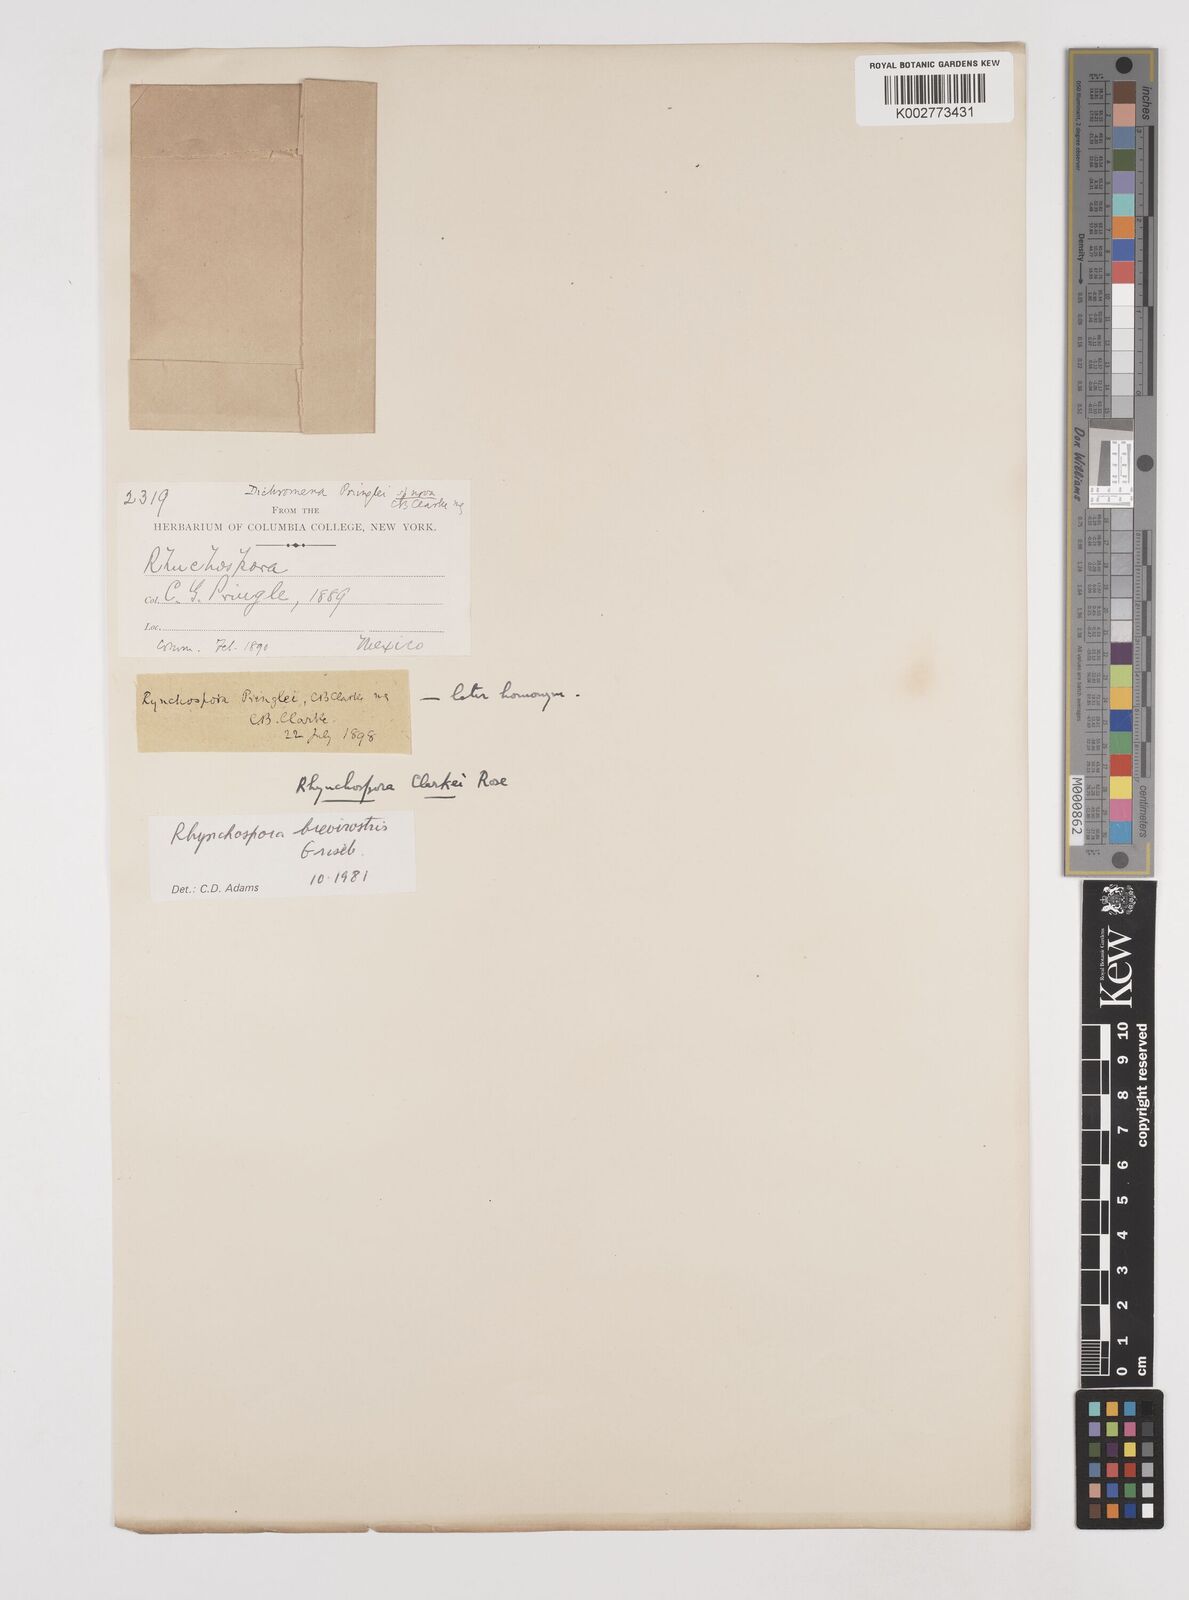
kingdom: Plantae
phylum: Tracheophyta
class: Liliopsida
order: Poales
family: Cyperaceae
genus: Rhynchospora
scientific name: Rhynchospora brevirostris
